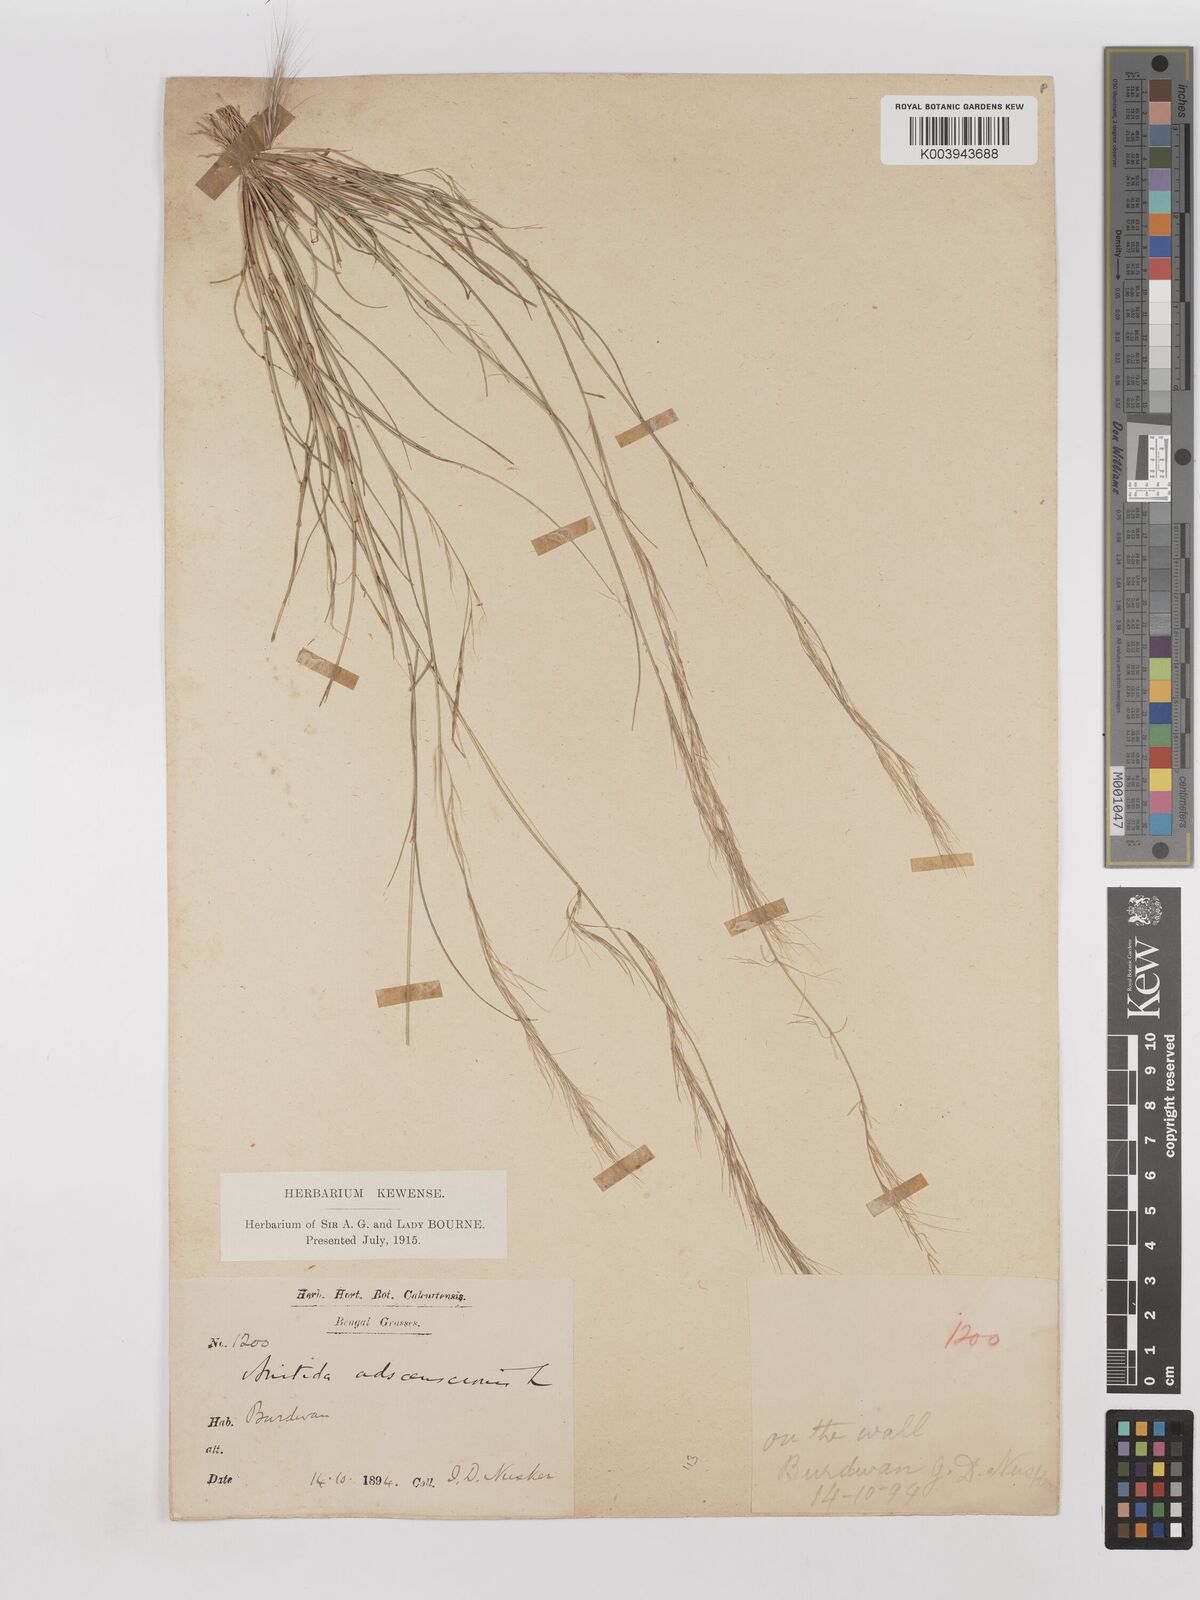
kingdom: Plantae
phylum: Tracheophyta
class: Liliopsida
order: Poales
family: Poaceae
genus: Aristida
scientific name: Aristida adscensionis
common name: Sixweeks threeawn
